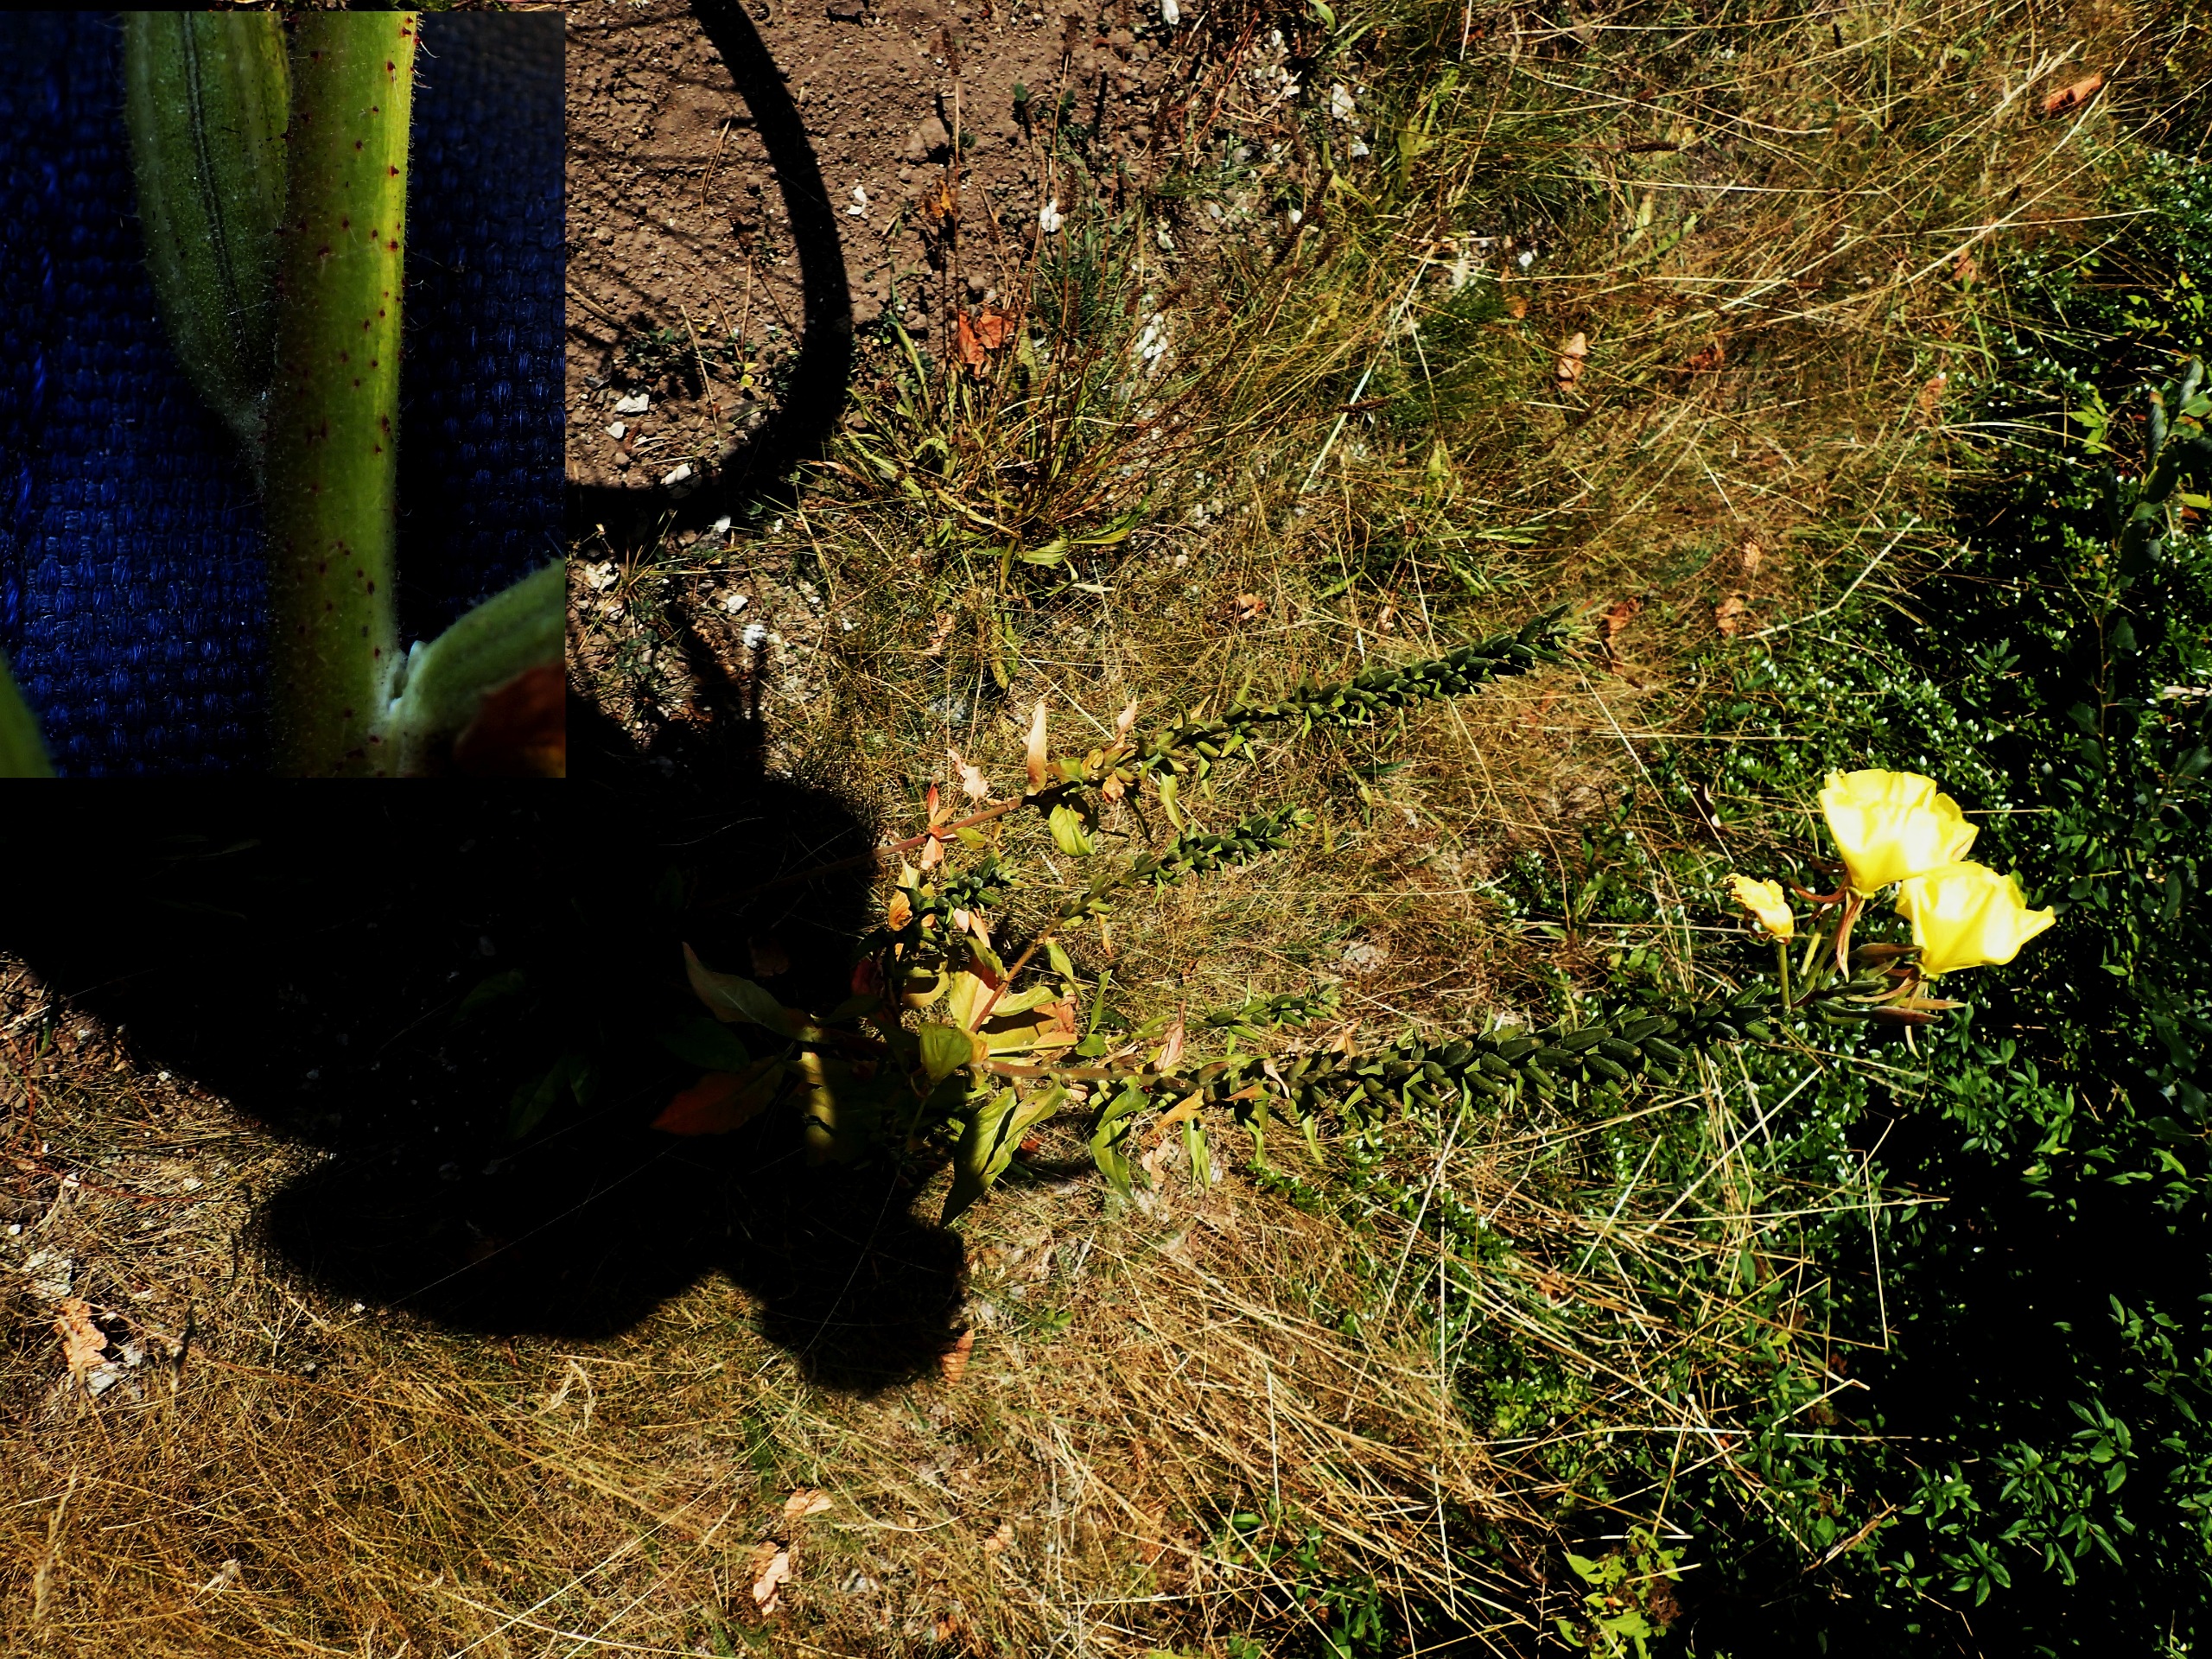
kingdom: Plantae
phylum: Tracheophyta
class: Magnoliopsida
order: Myrtales
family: Onagraceae
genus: Oenothera
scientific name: Oenothera glazioviana
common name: Kæmpe-natlys
